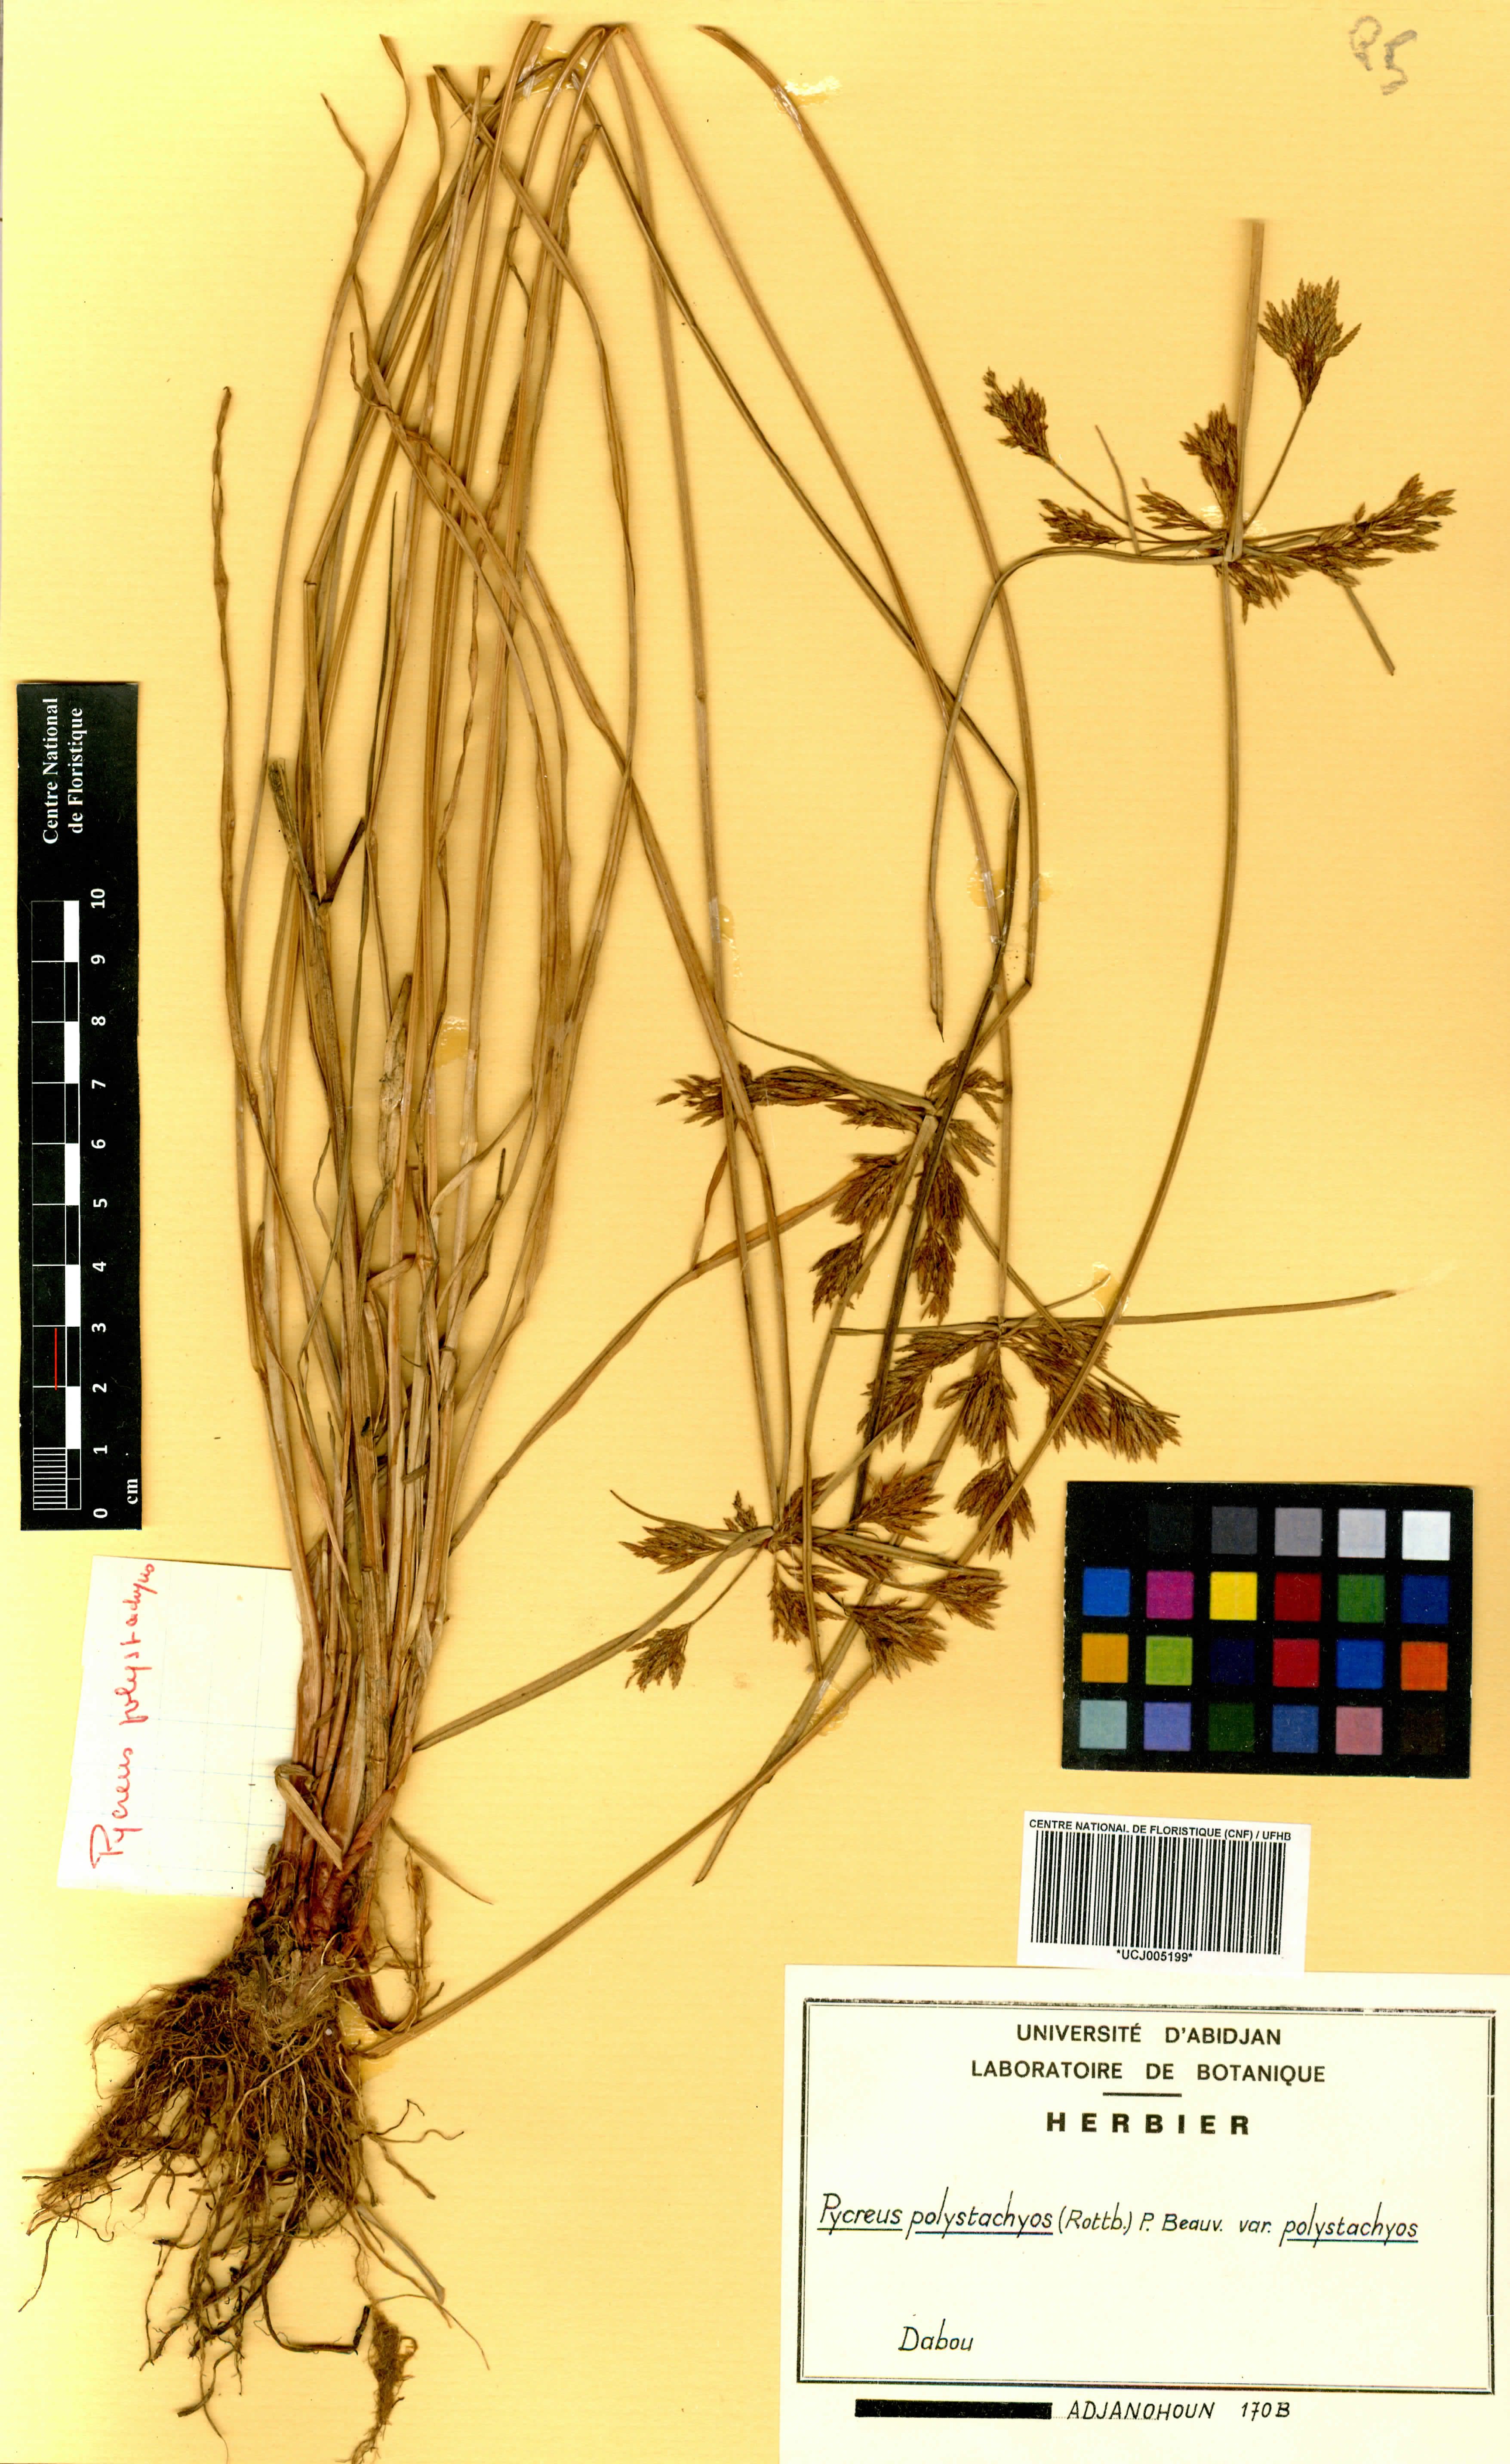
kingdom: Plantae
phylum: Tracheophyta
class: Liliopsida
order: Poales
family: Cyperaceae
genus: Cyperus
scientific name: Cyperus polystachyos
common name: Bunchy flat sedge
